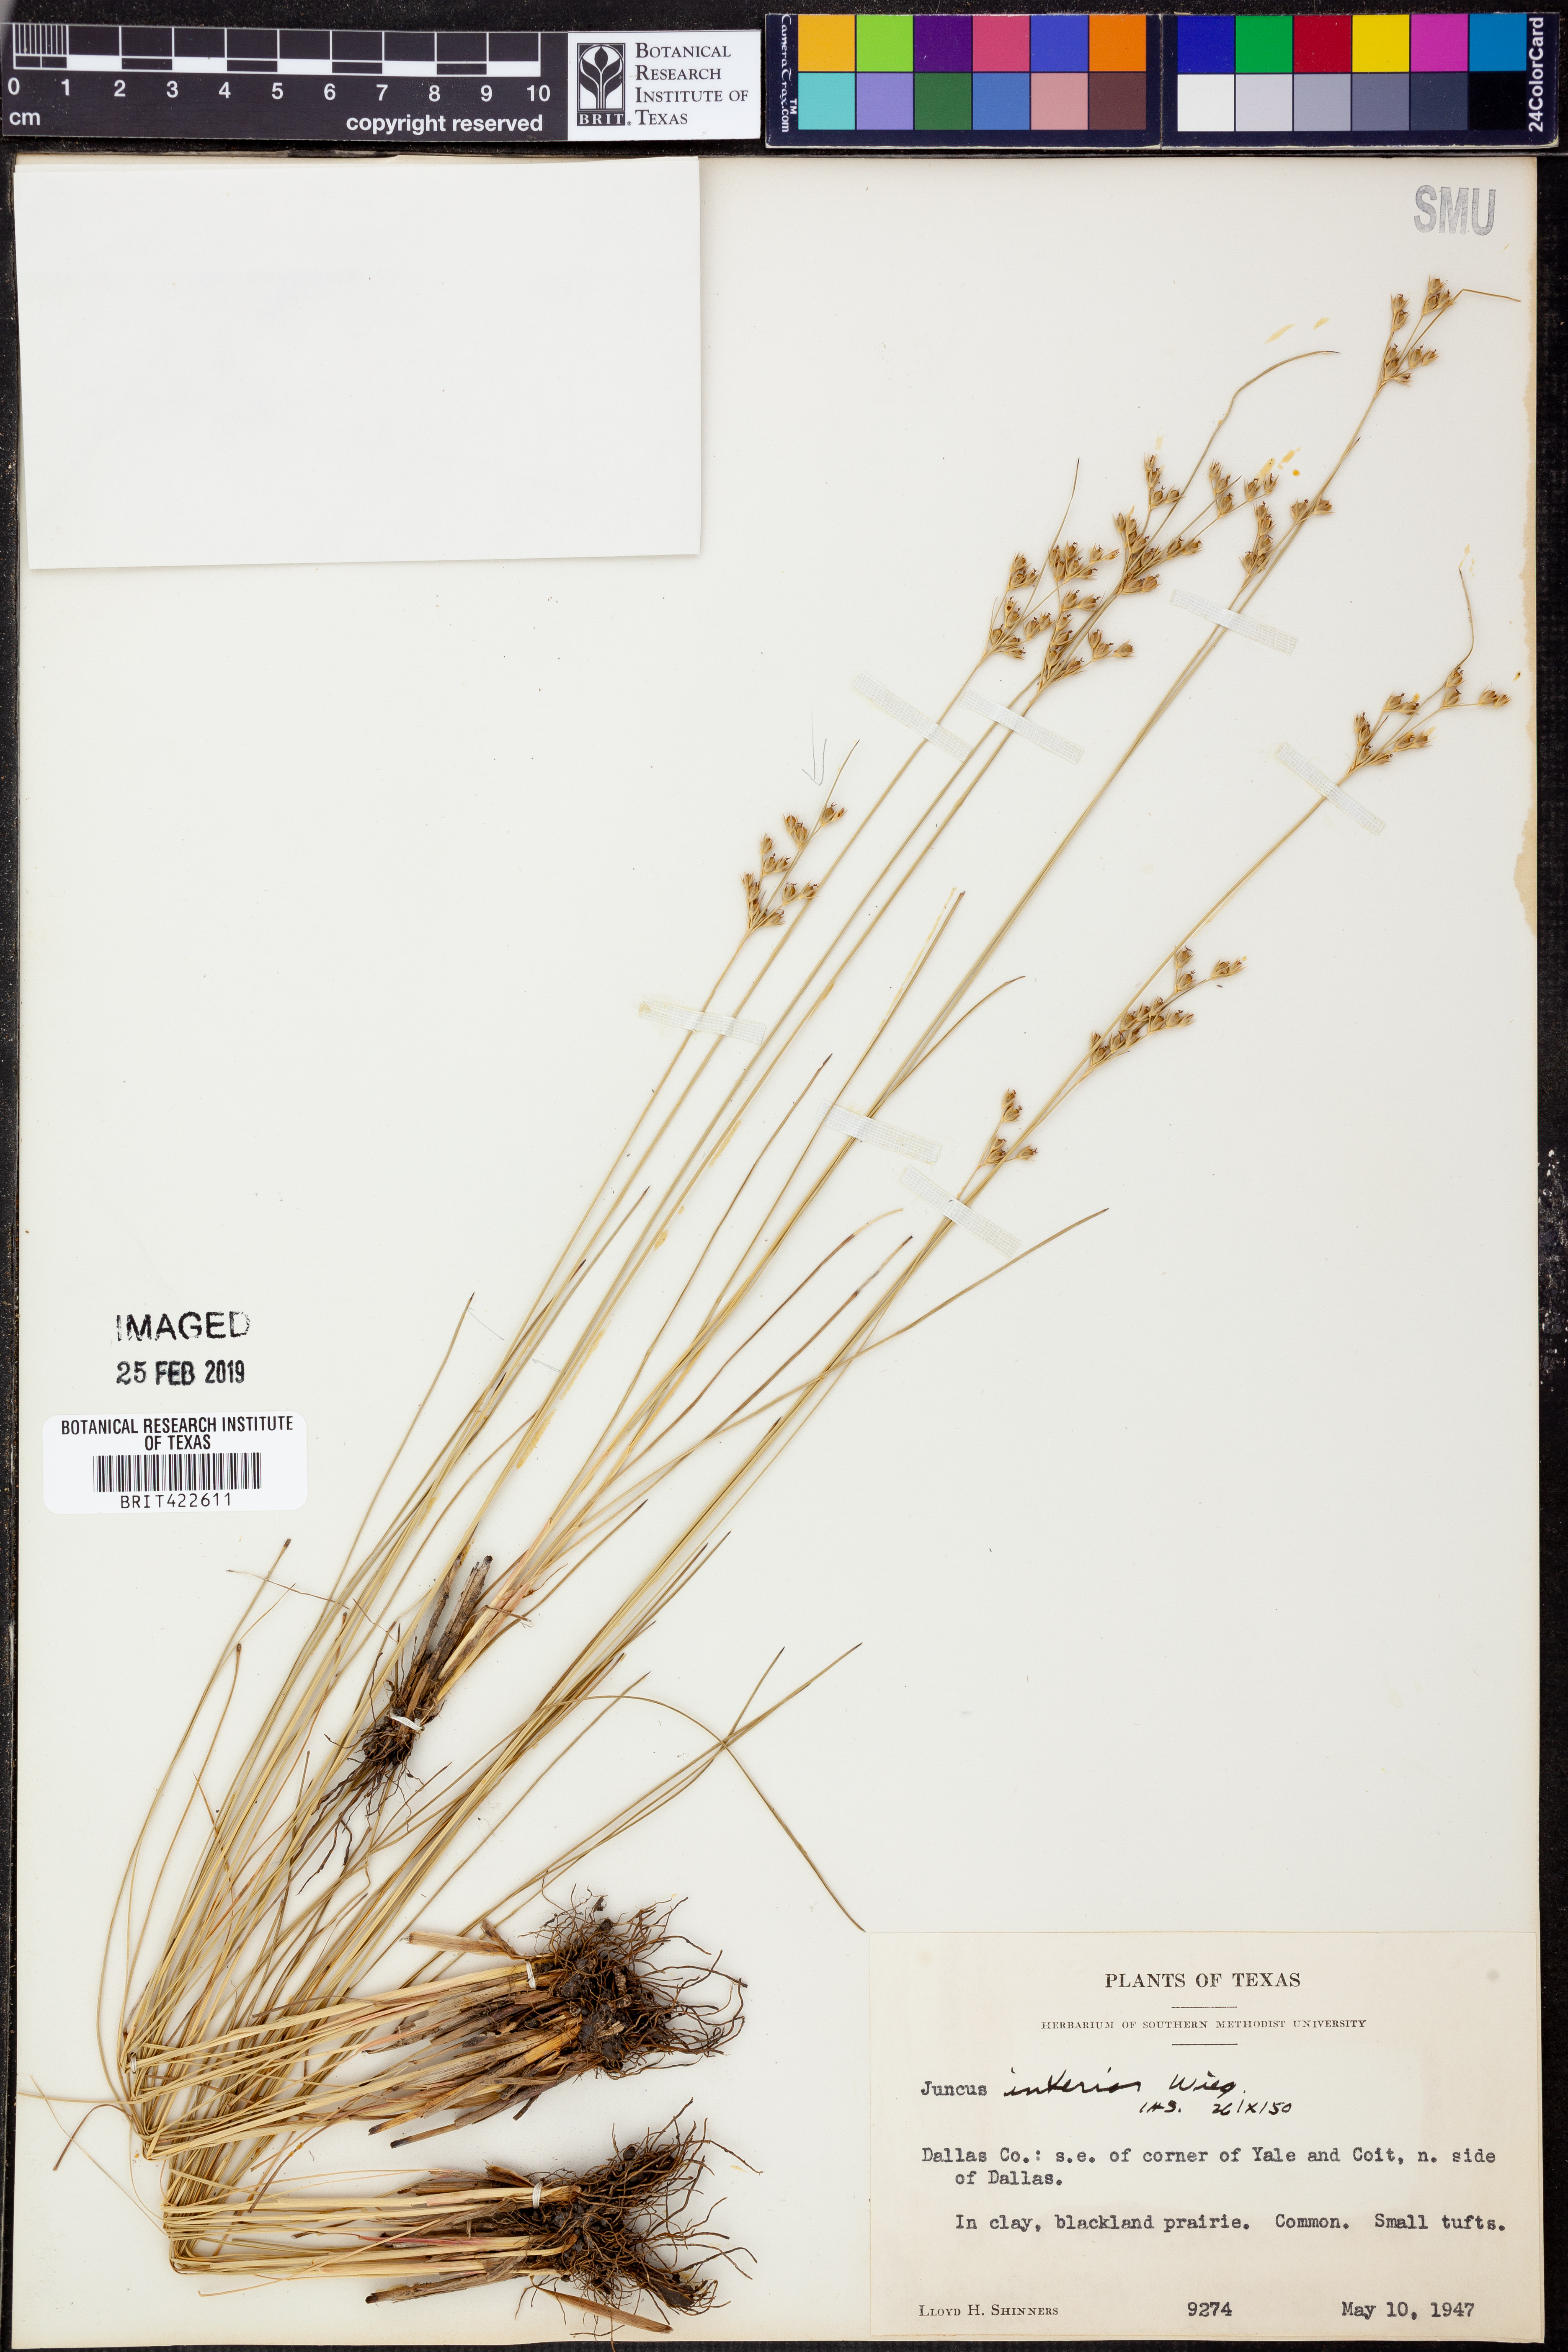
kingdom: Plantae
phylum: Tracheophyta
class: Liliopsida
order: Poales
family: Juncaceae
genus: Juncus
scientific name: Juncus inflexus
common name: Hard rush
